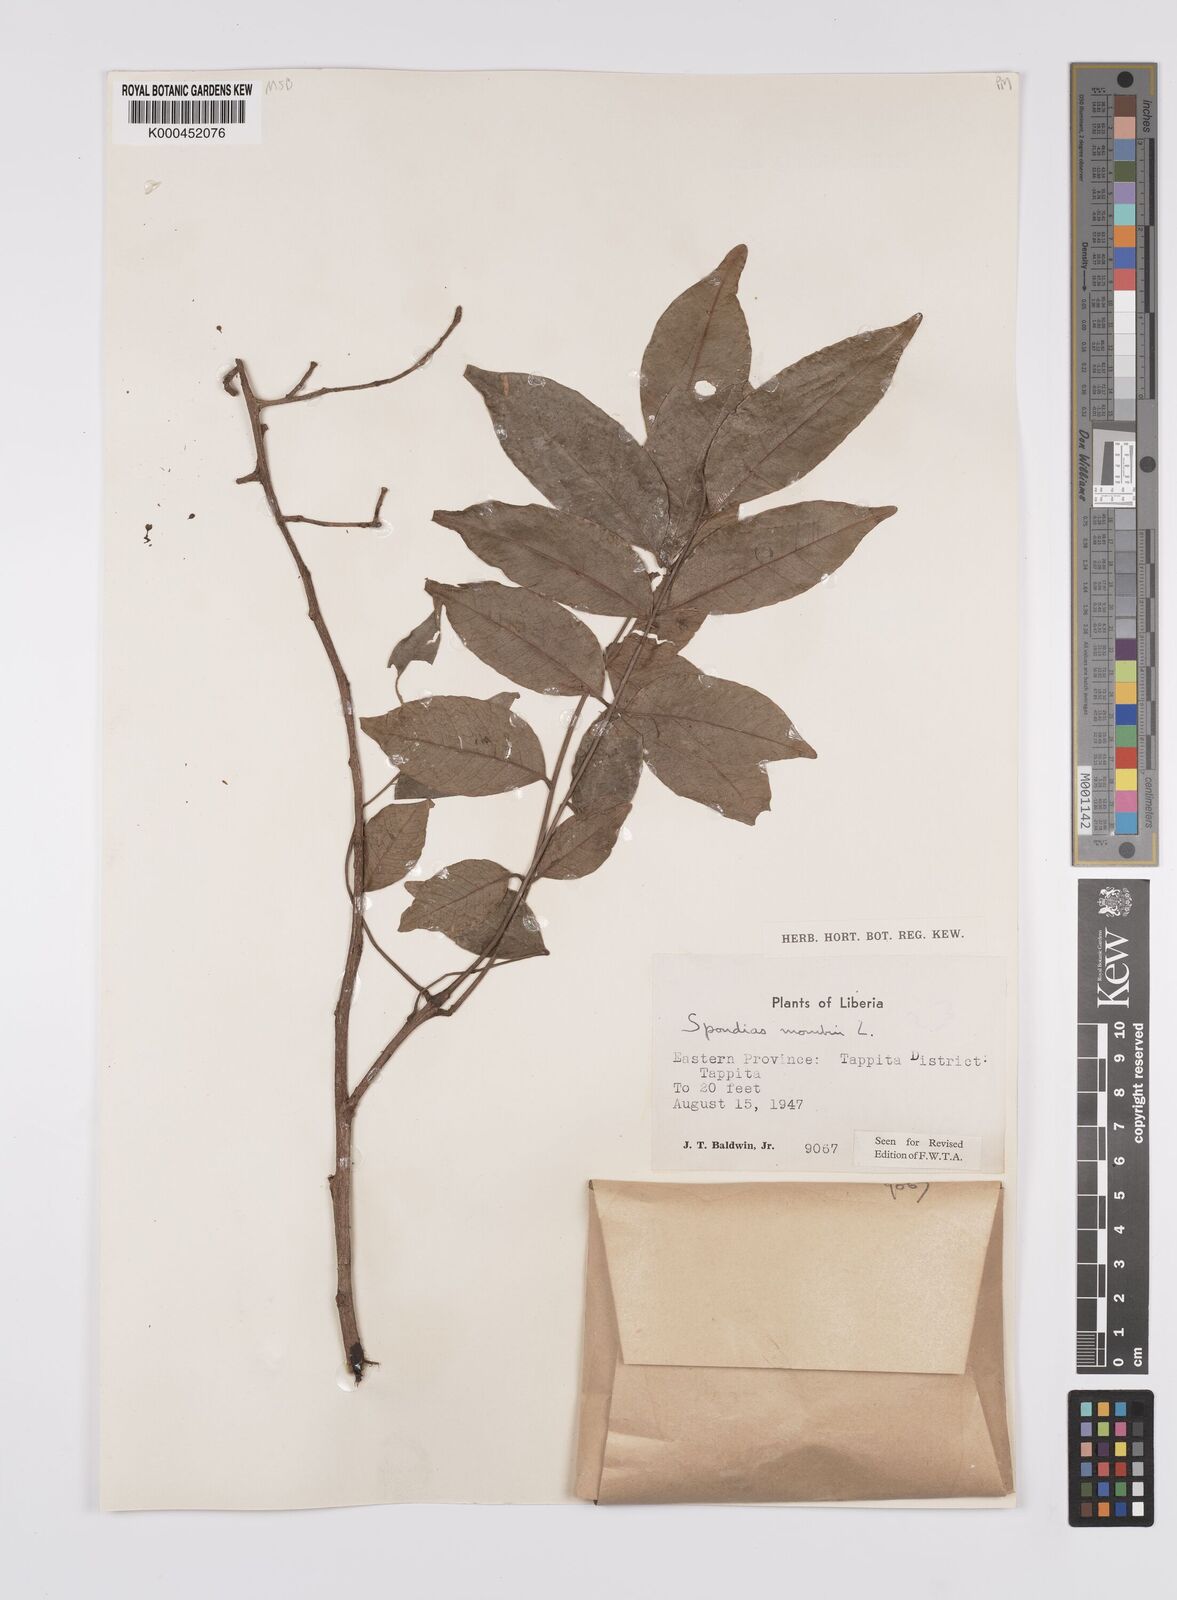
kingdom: Plantae
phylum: Tracheophyta
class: Magnoliopsida
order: Sapindales
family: Anacardiaceae
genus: Spondias
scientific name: Spondias mombin
